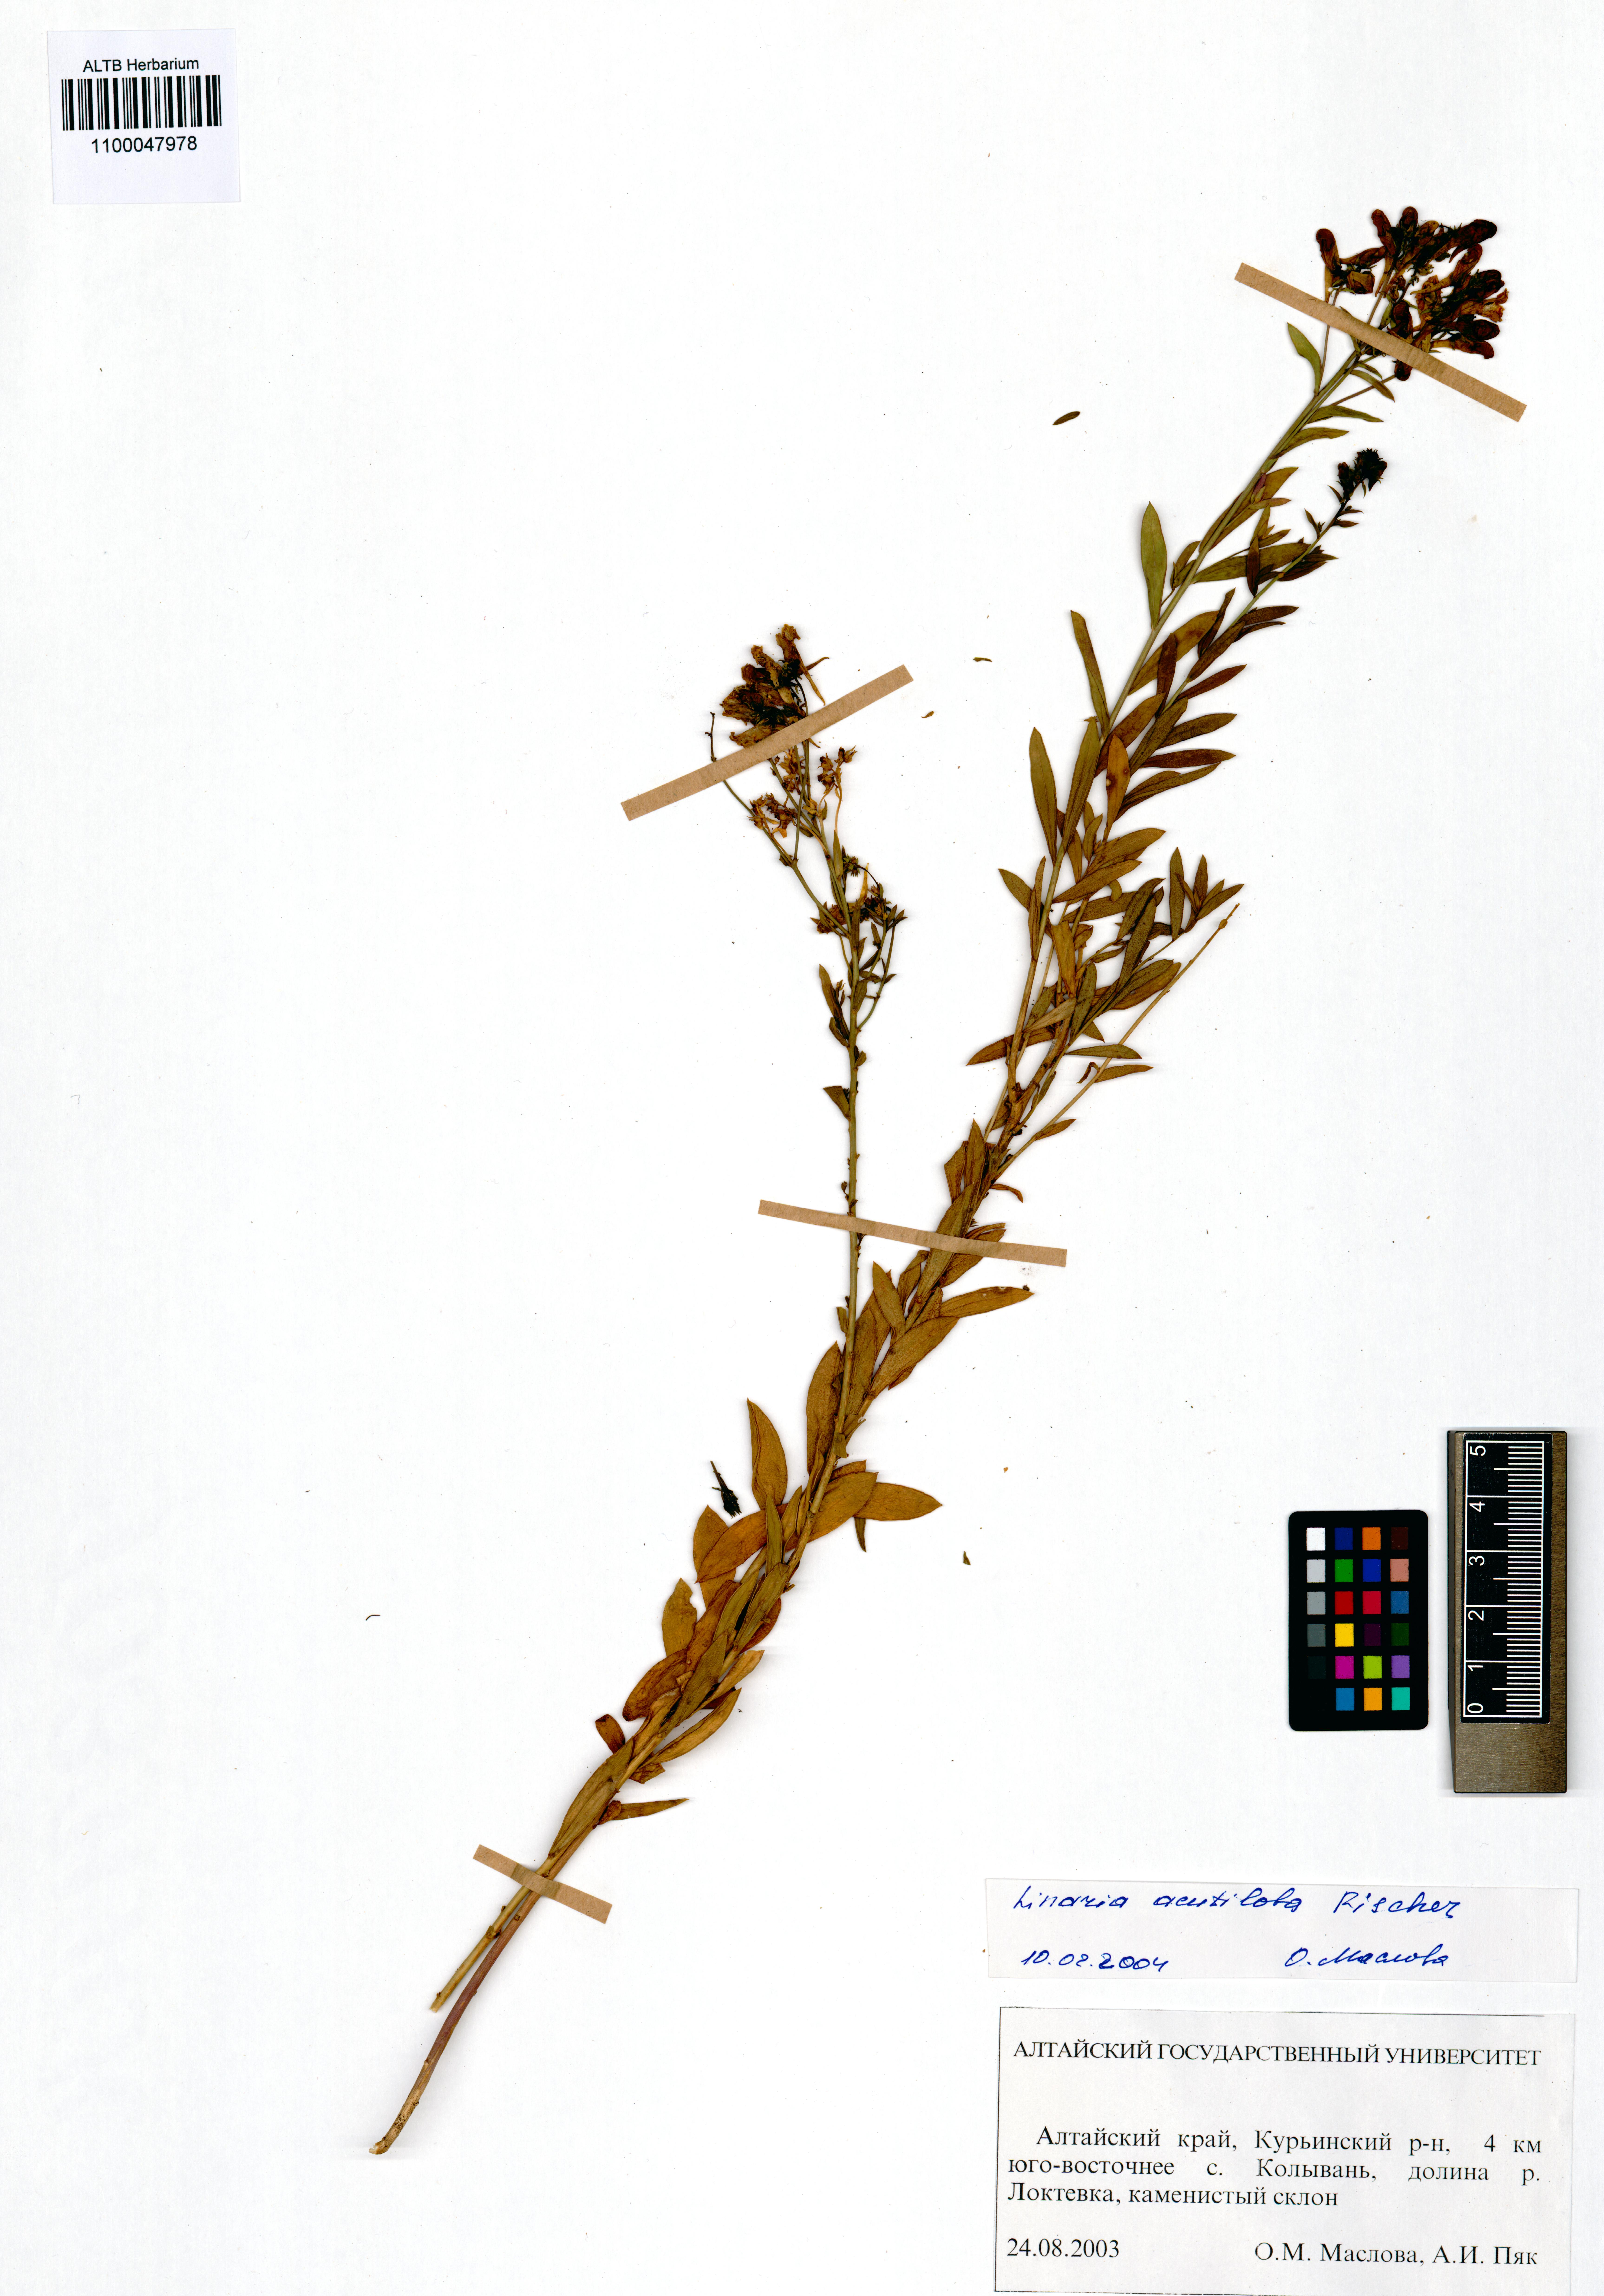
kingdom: Plantae
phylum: Tracheophyta
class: Magnoliopsida
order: Lamiales
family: Plantaginaceae
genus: Linaria
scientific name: Linaria acutiloba
